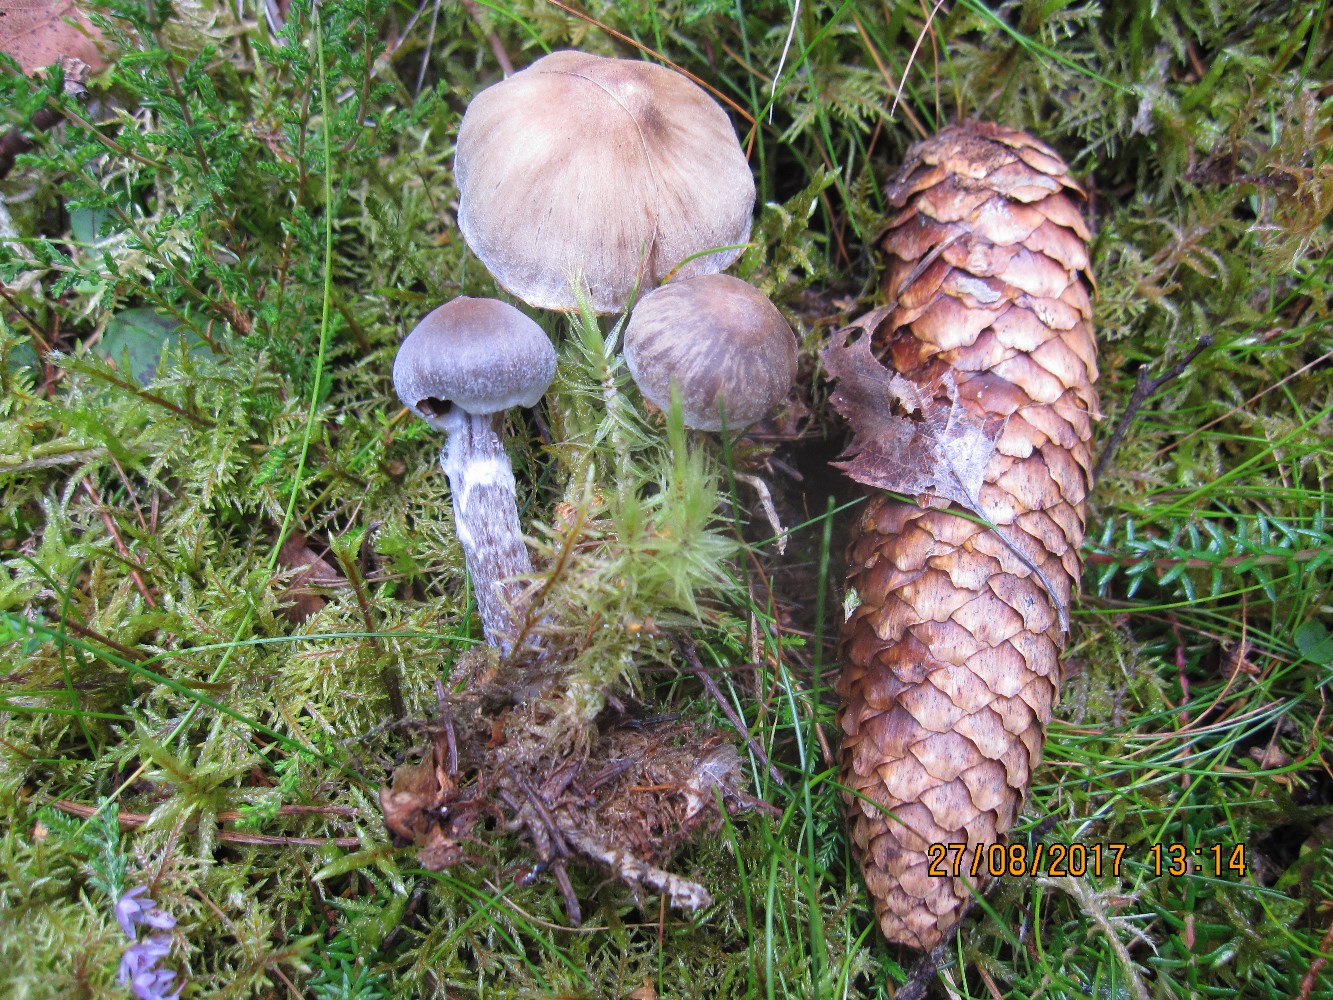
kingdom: Fungi
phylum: Basidiomycota
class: Agaricomycetes
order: Agaricales
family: Cortinariaceae
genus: Cortinarius
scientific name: Cortinarius
